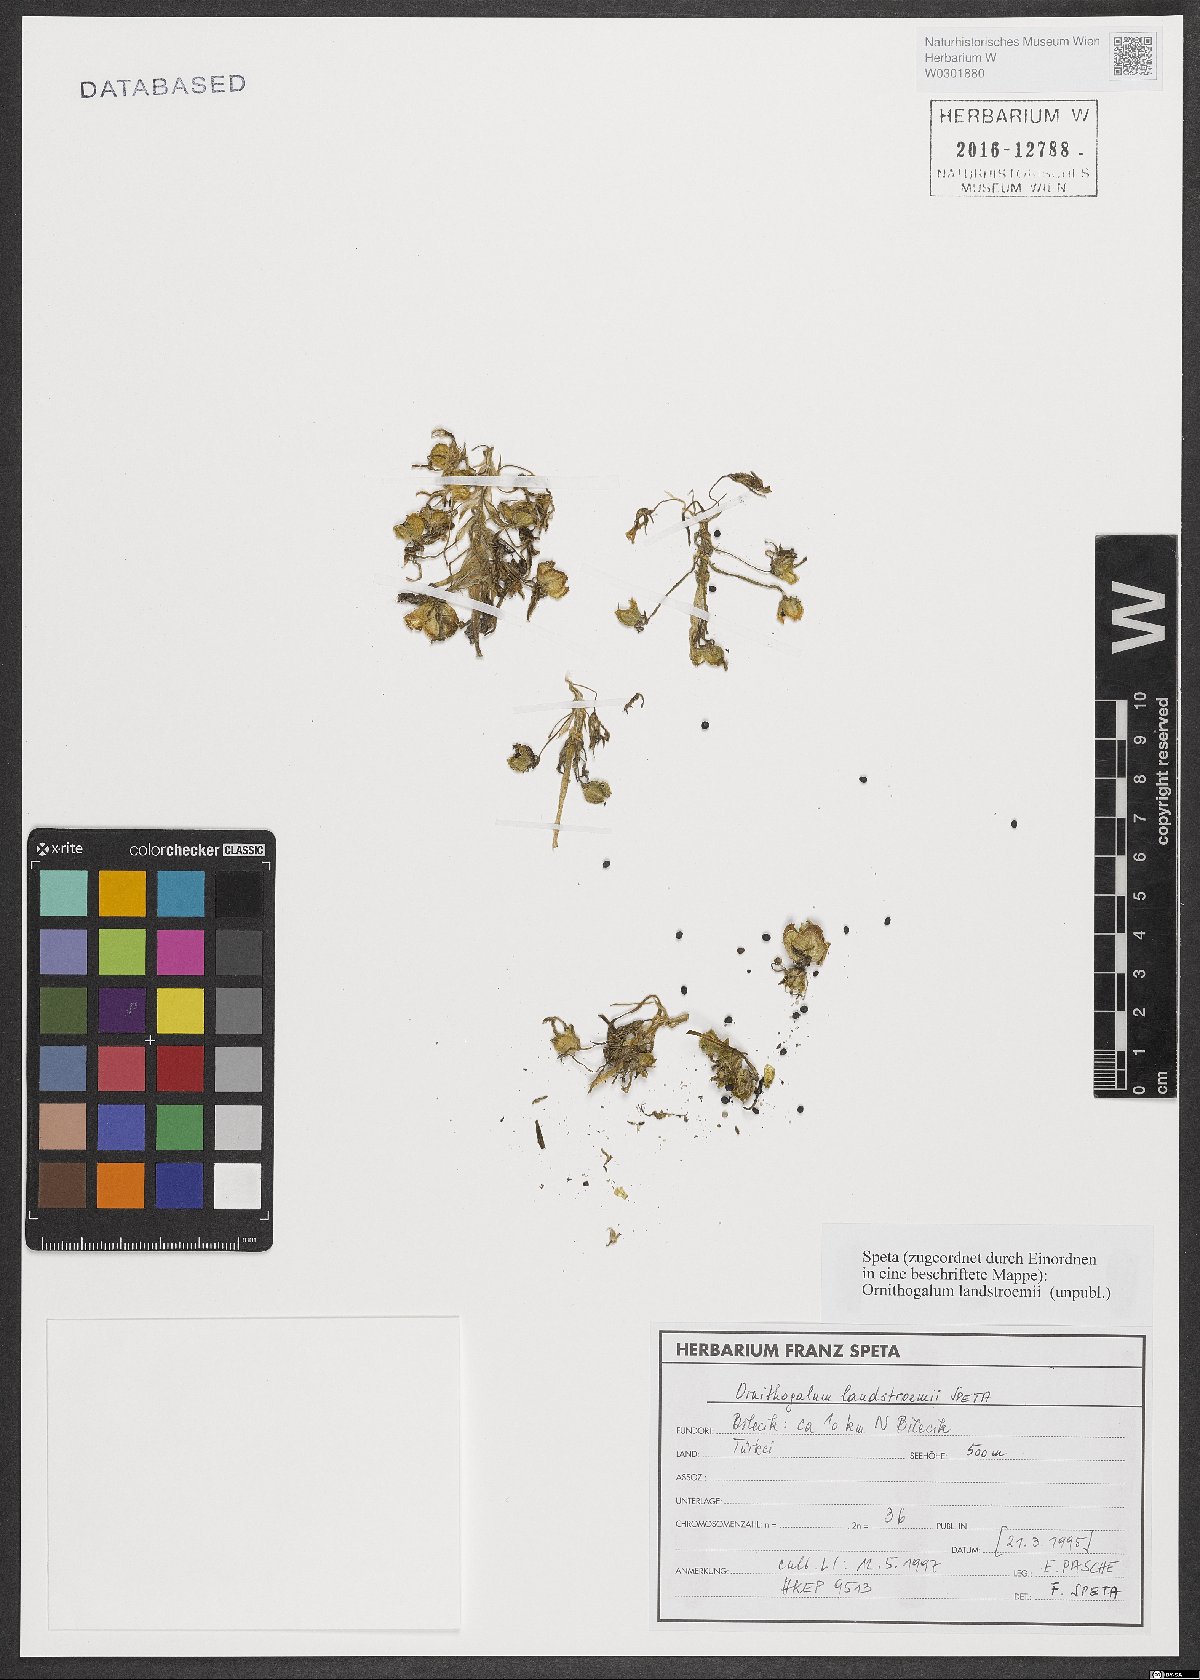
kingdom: Plantae
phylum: Tracheophyta
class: Liliopsida
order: Asparagales
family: Asparagaceae
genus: Ornithogalum
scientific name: Ornithogalum
